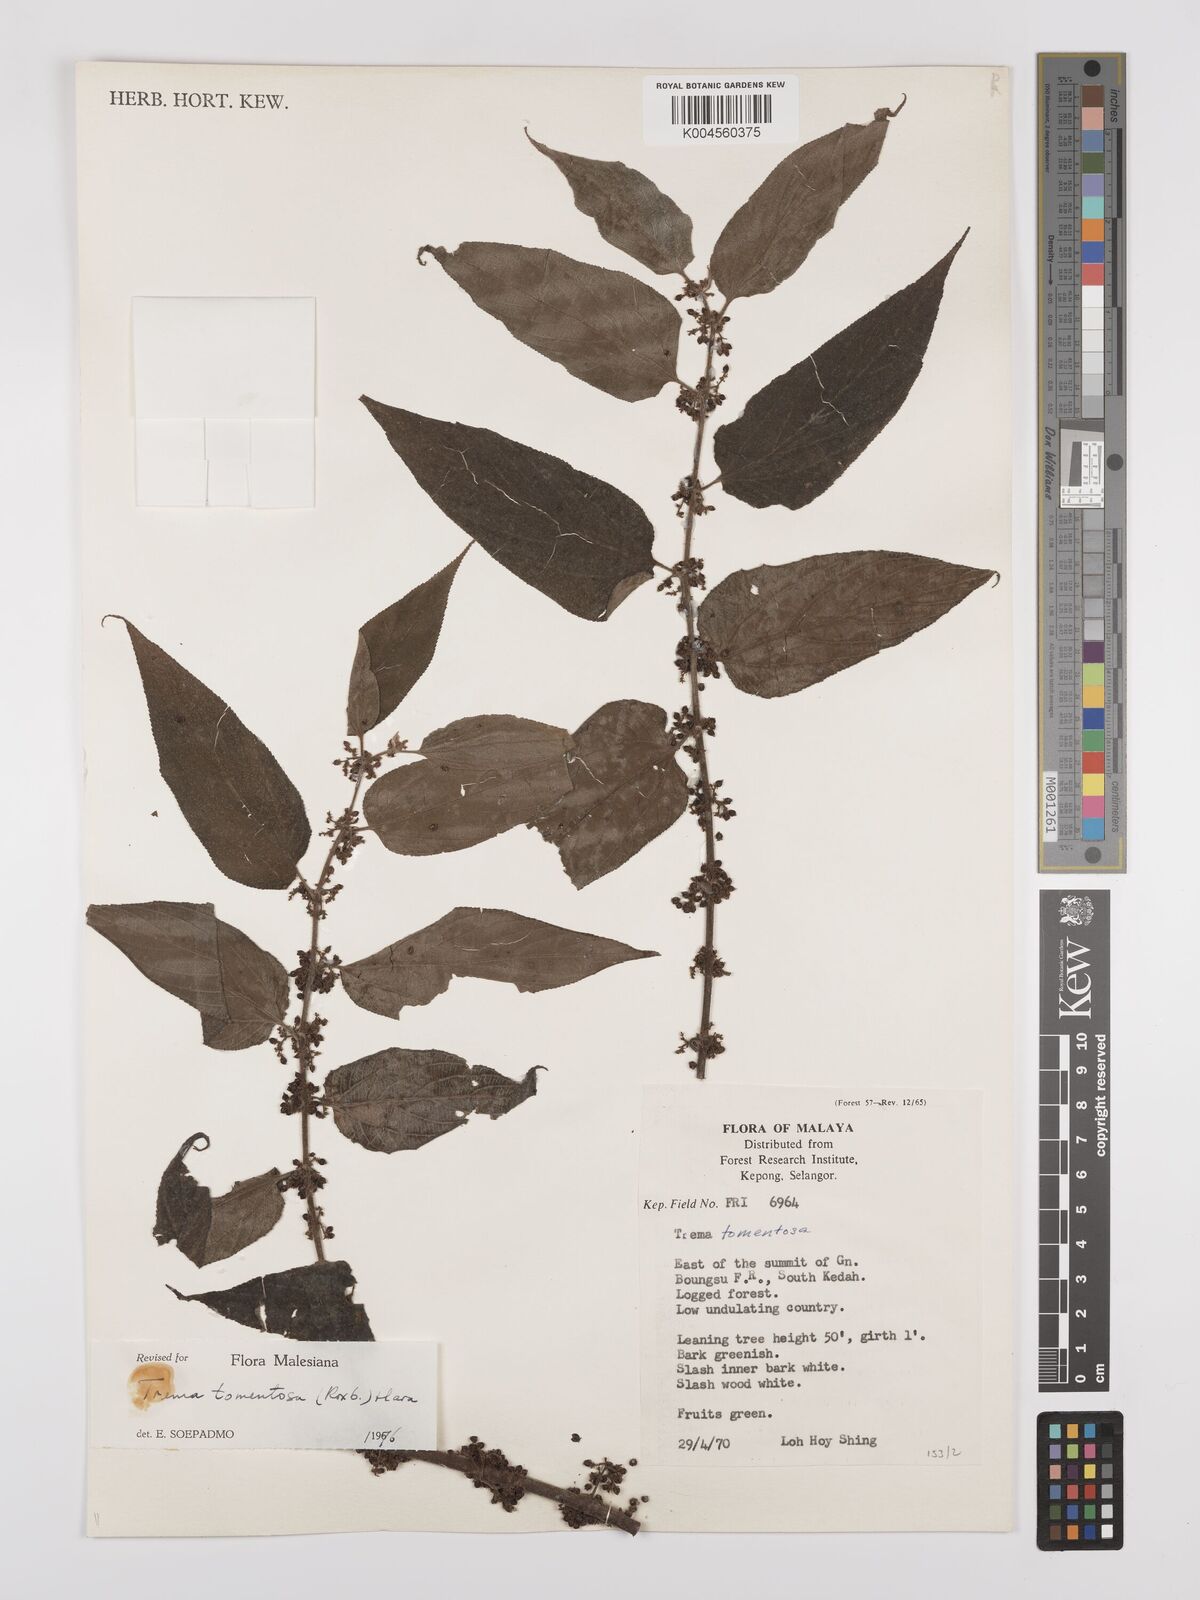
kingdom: Plantae
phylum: Tracheophyta
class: Magnoliopsida
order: Rosales
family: Cannabaceae
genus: Trema
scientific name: Trema tomentosum
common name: Peach-leaf-poisonbush
